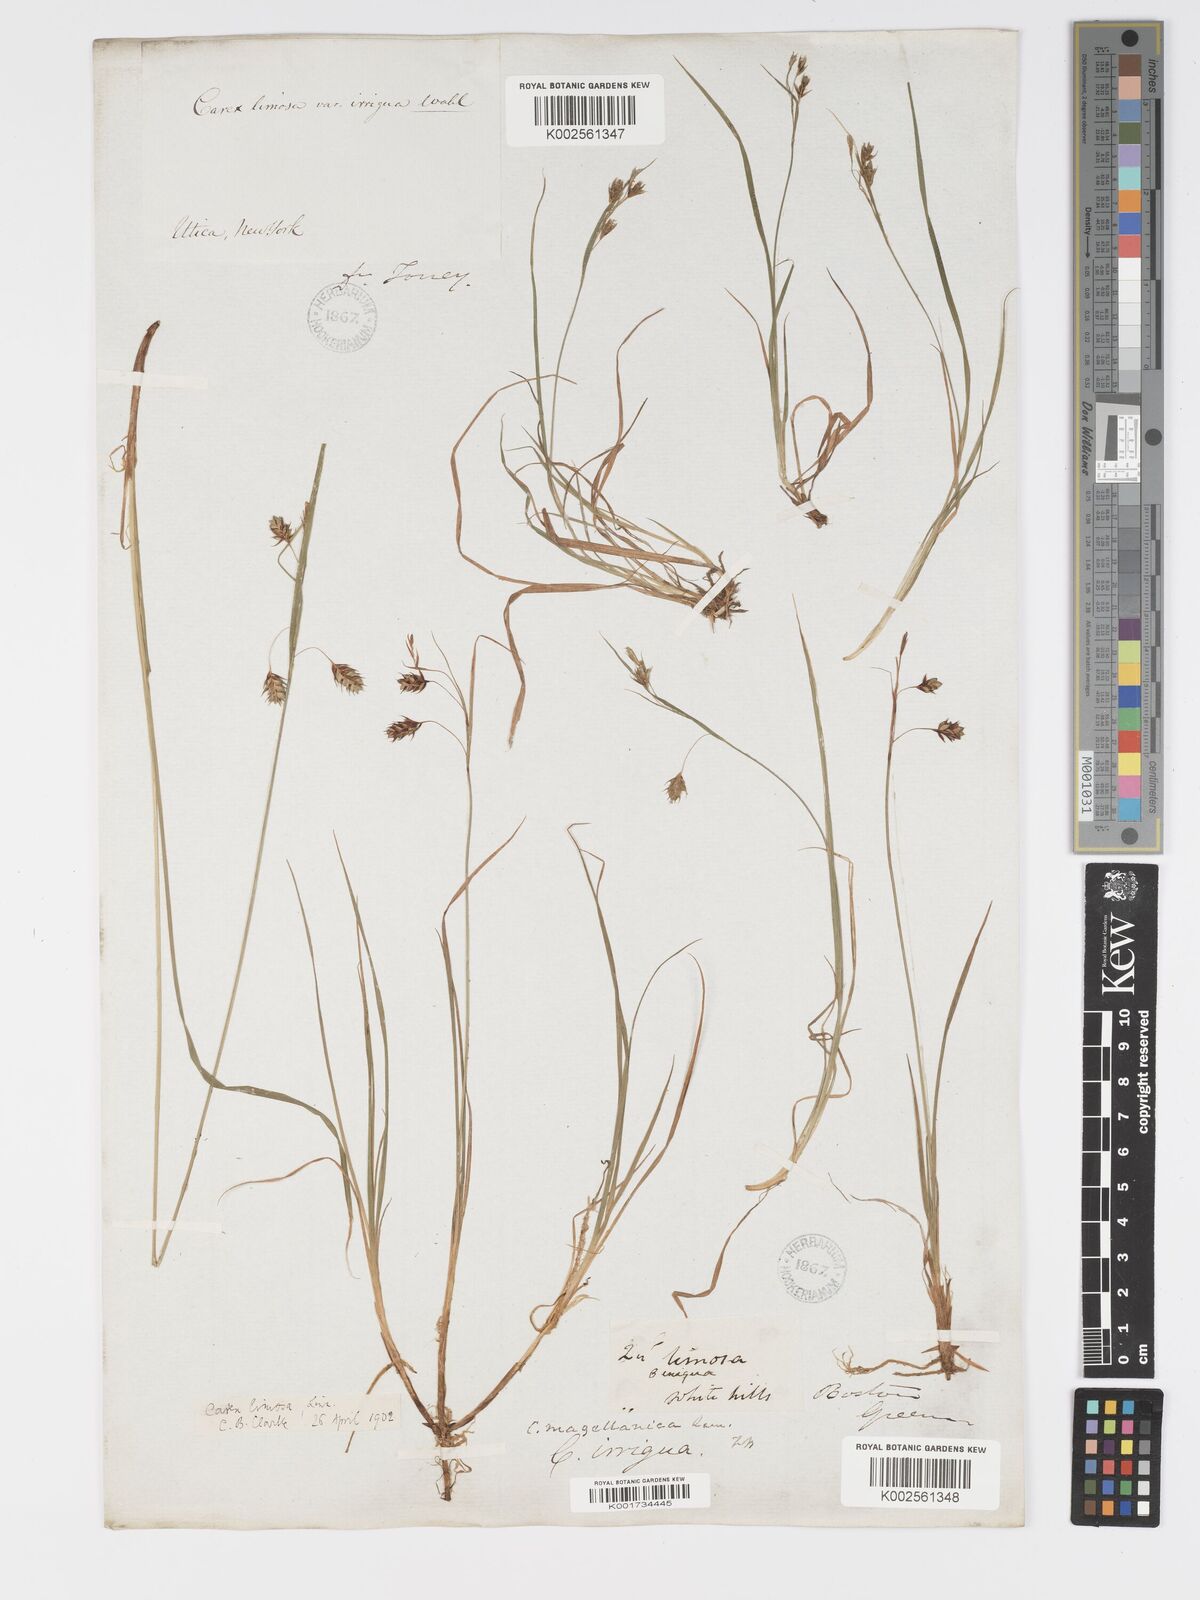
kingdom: Plantae
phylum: Tracheophyta
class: Liliopsida
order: Poales
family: Cyperaceae
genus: Carex
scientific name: Carex magellanica
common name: Bog sedge
